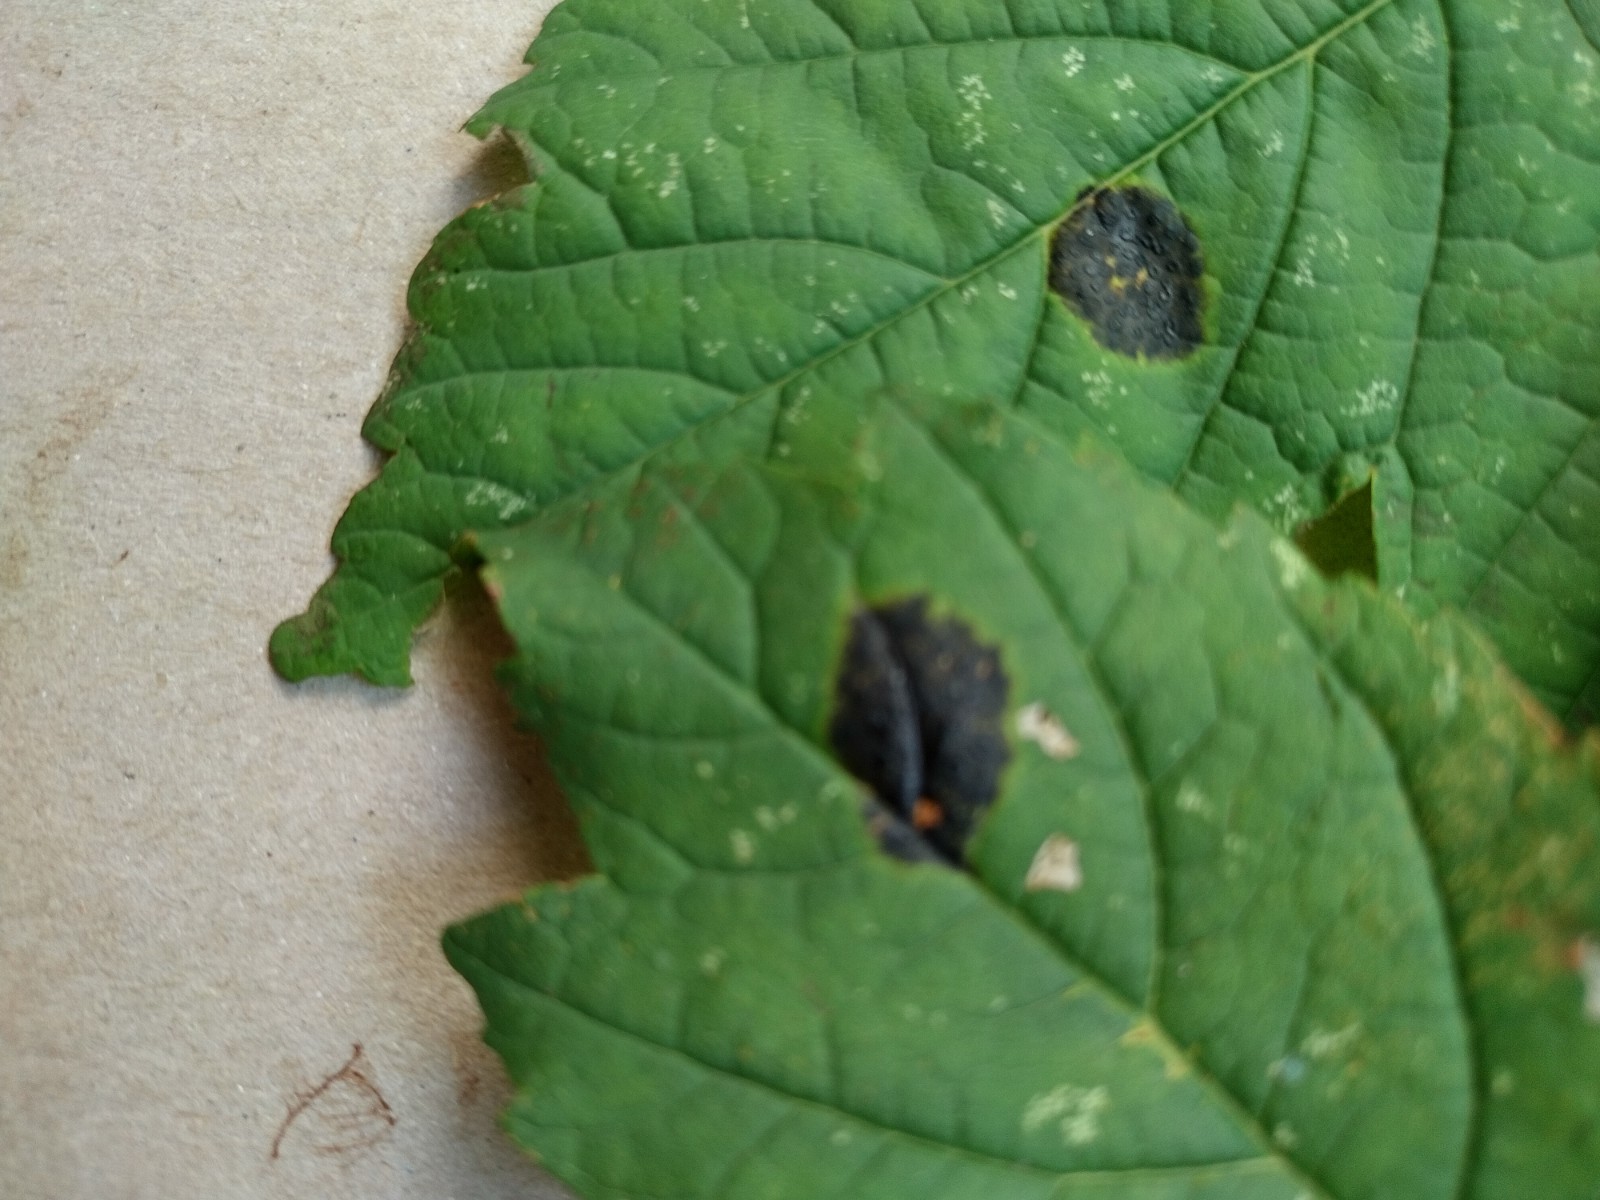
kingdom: Fungi
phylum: Ascomycota
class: Leotiomycetes
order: Rhytismatales
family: Rhytismataceae
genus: Rhytisma
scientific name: Rhytisma acerinum
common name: ahorn-rynkeplet
